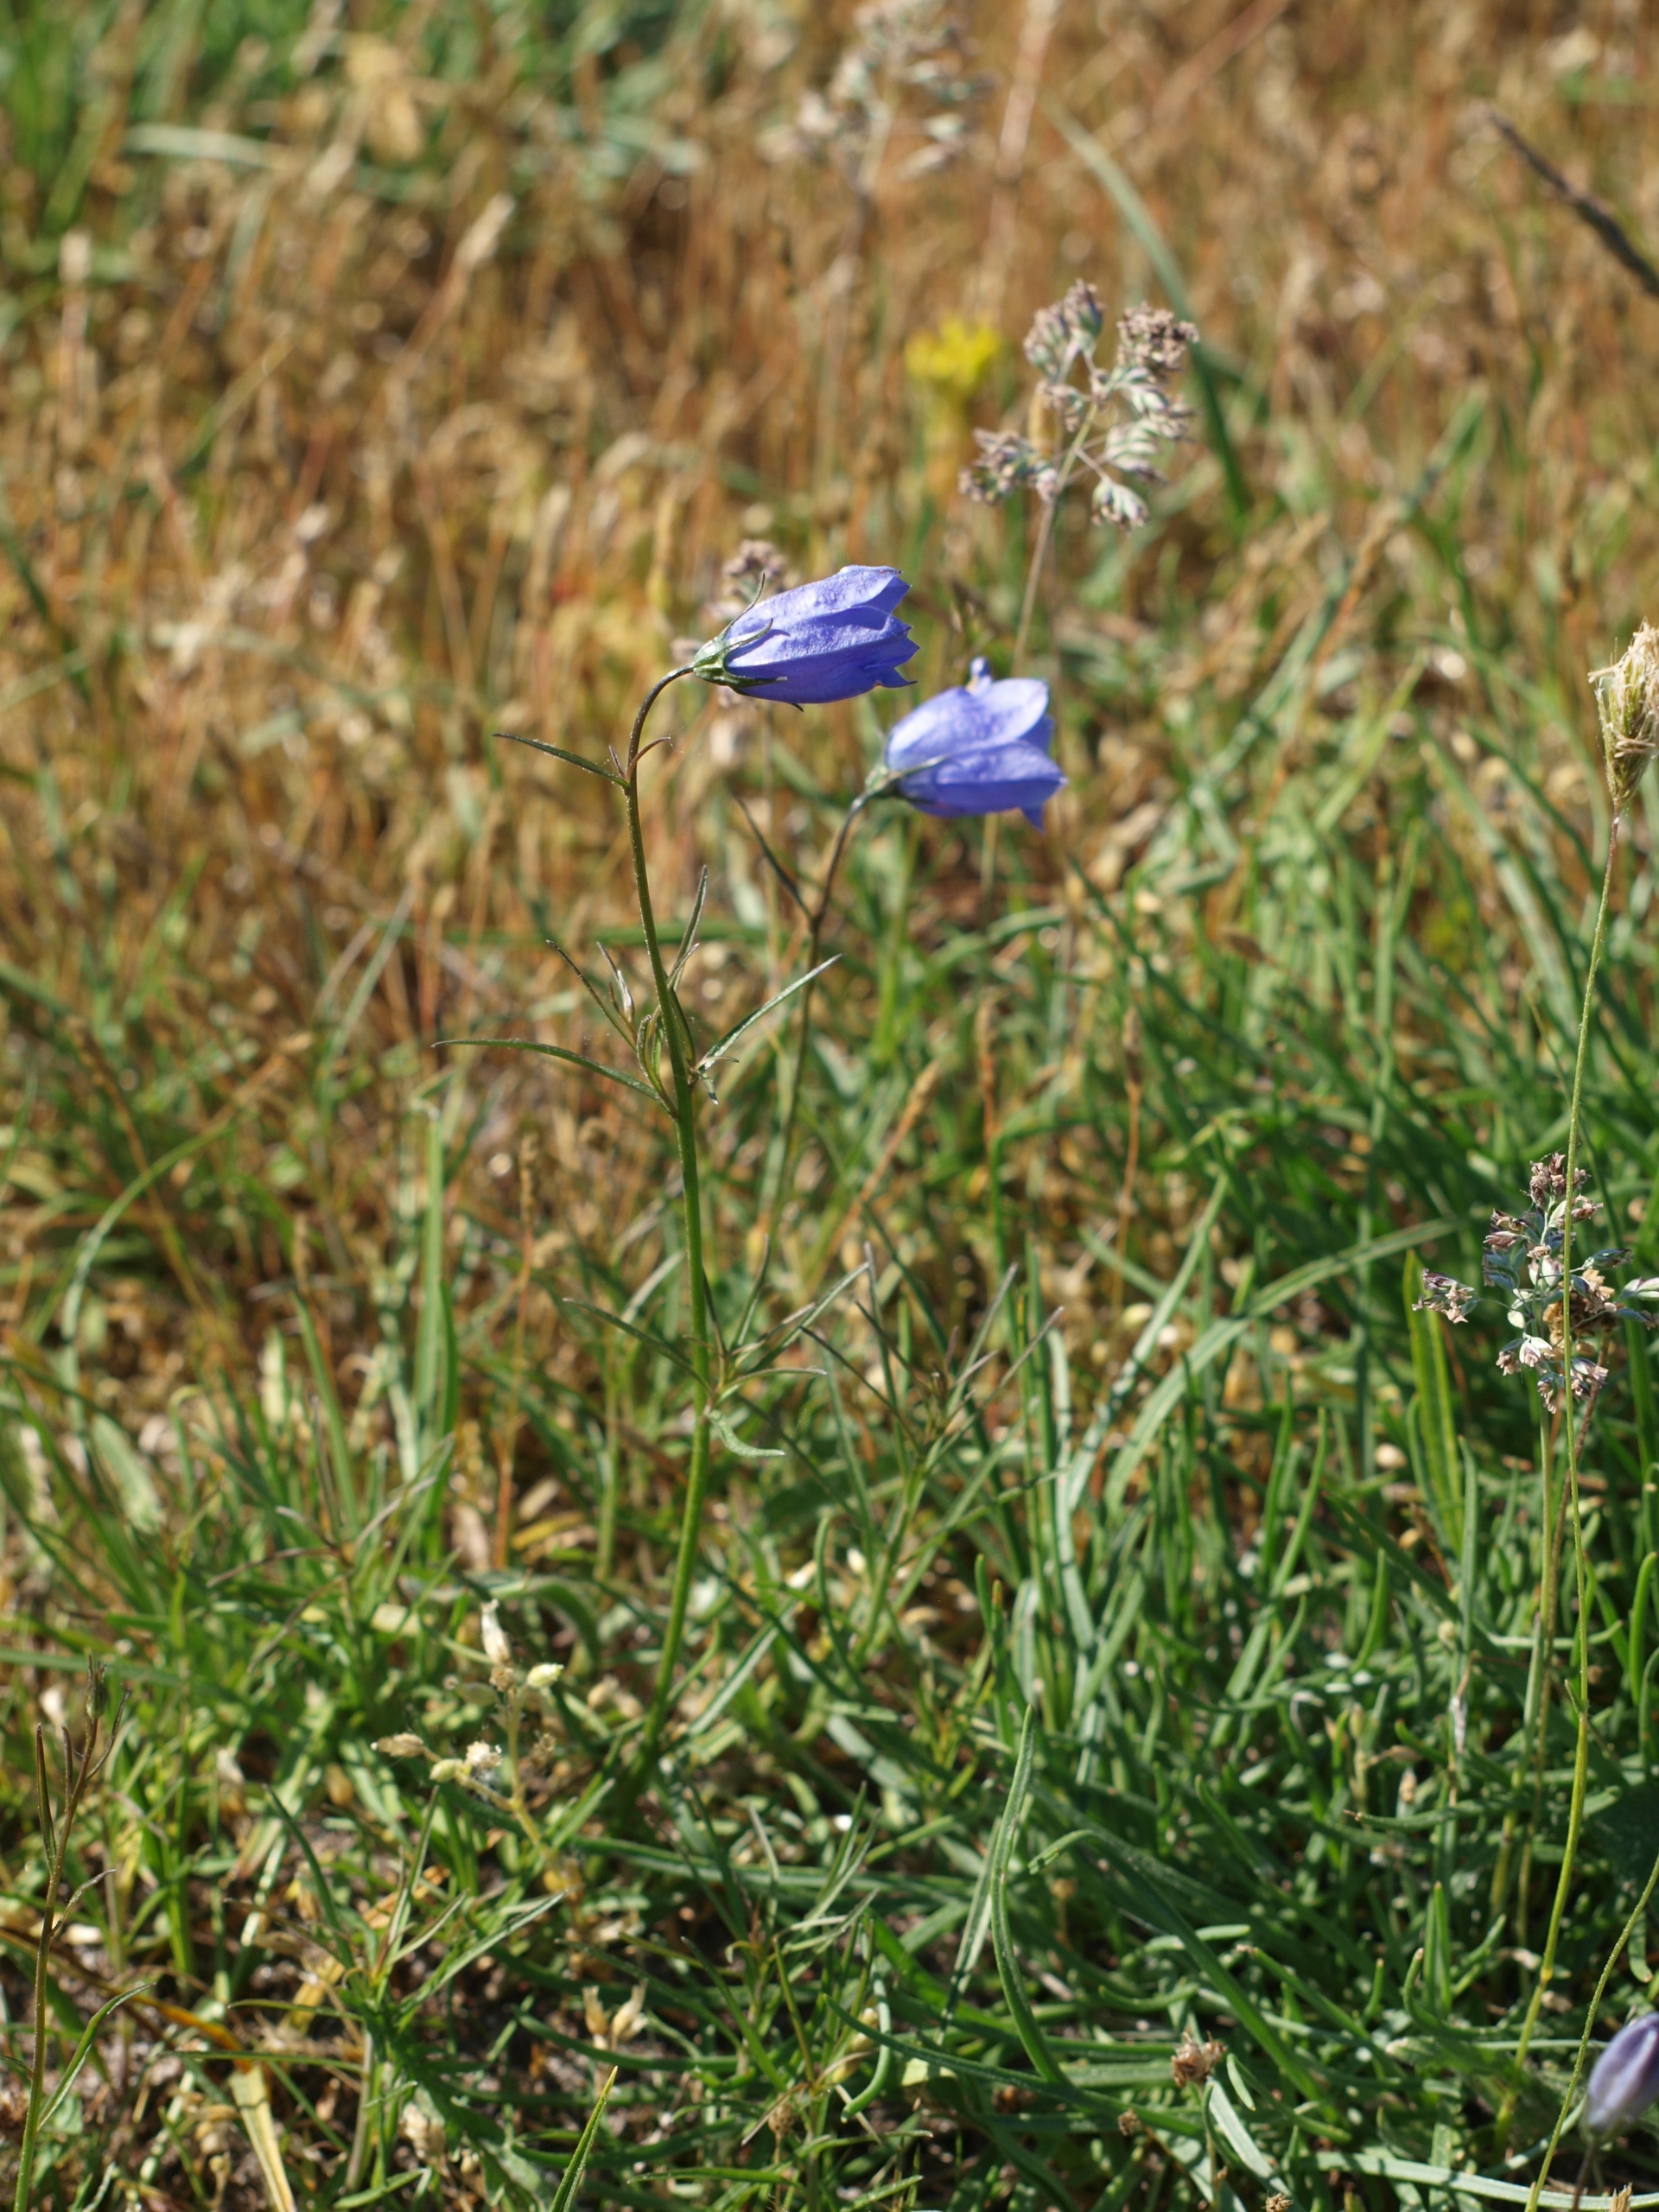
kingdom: Plantae
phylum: Tracheophyta
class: Magnoliopsida
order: Asterales
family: Campanulaceae
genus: Campanula
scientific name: Campanula rotundifolia
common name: Liden klokke
